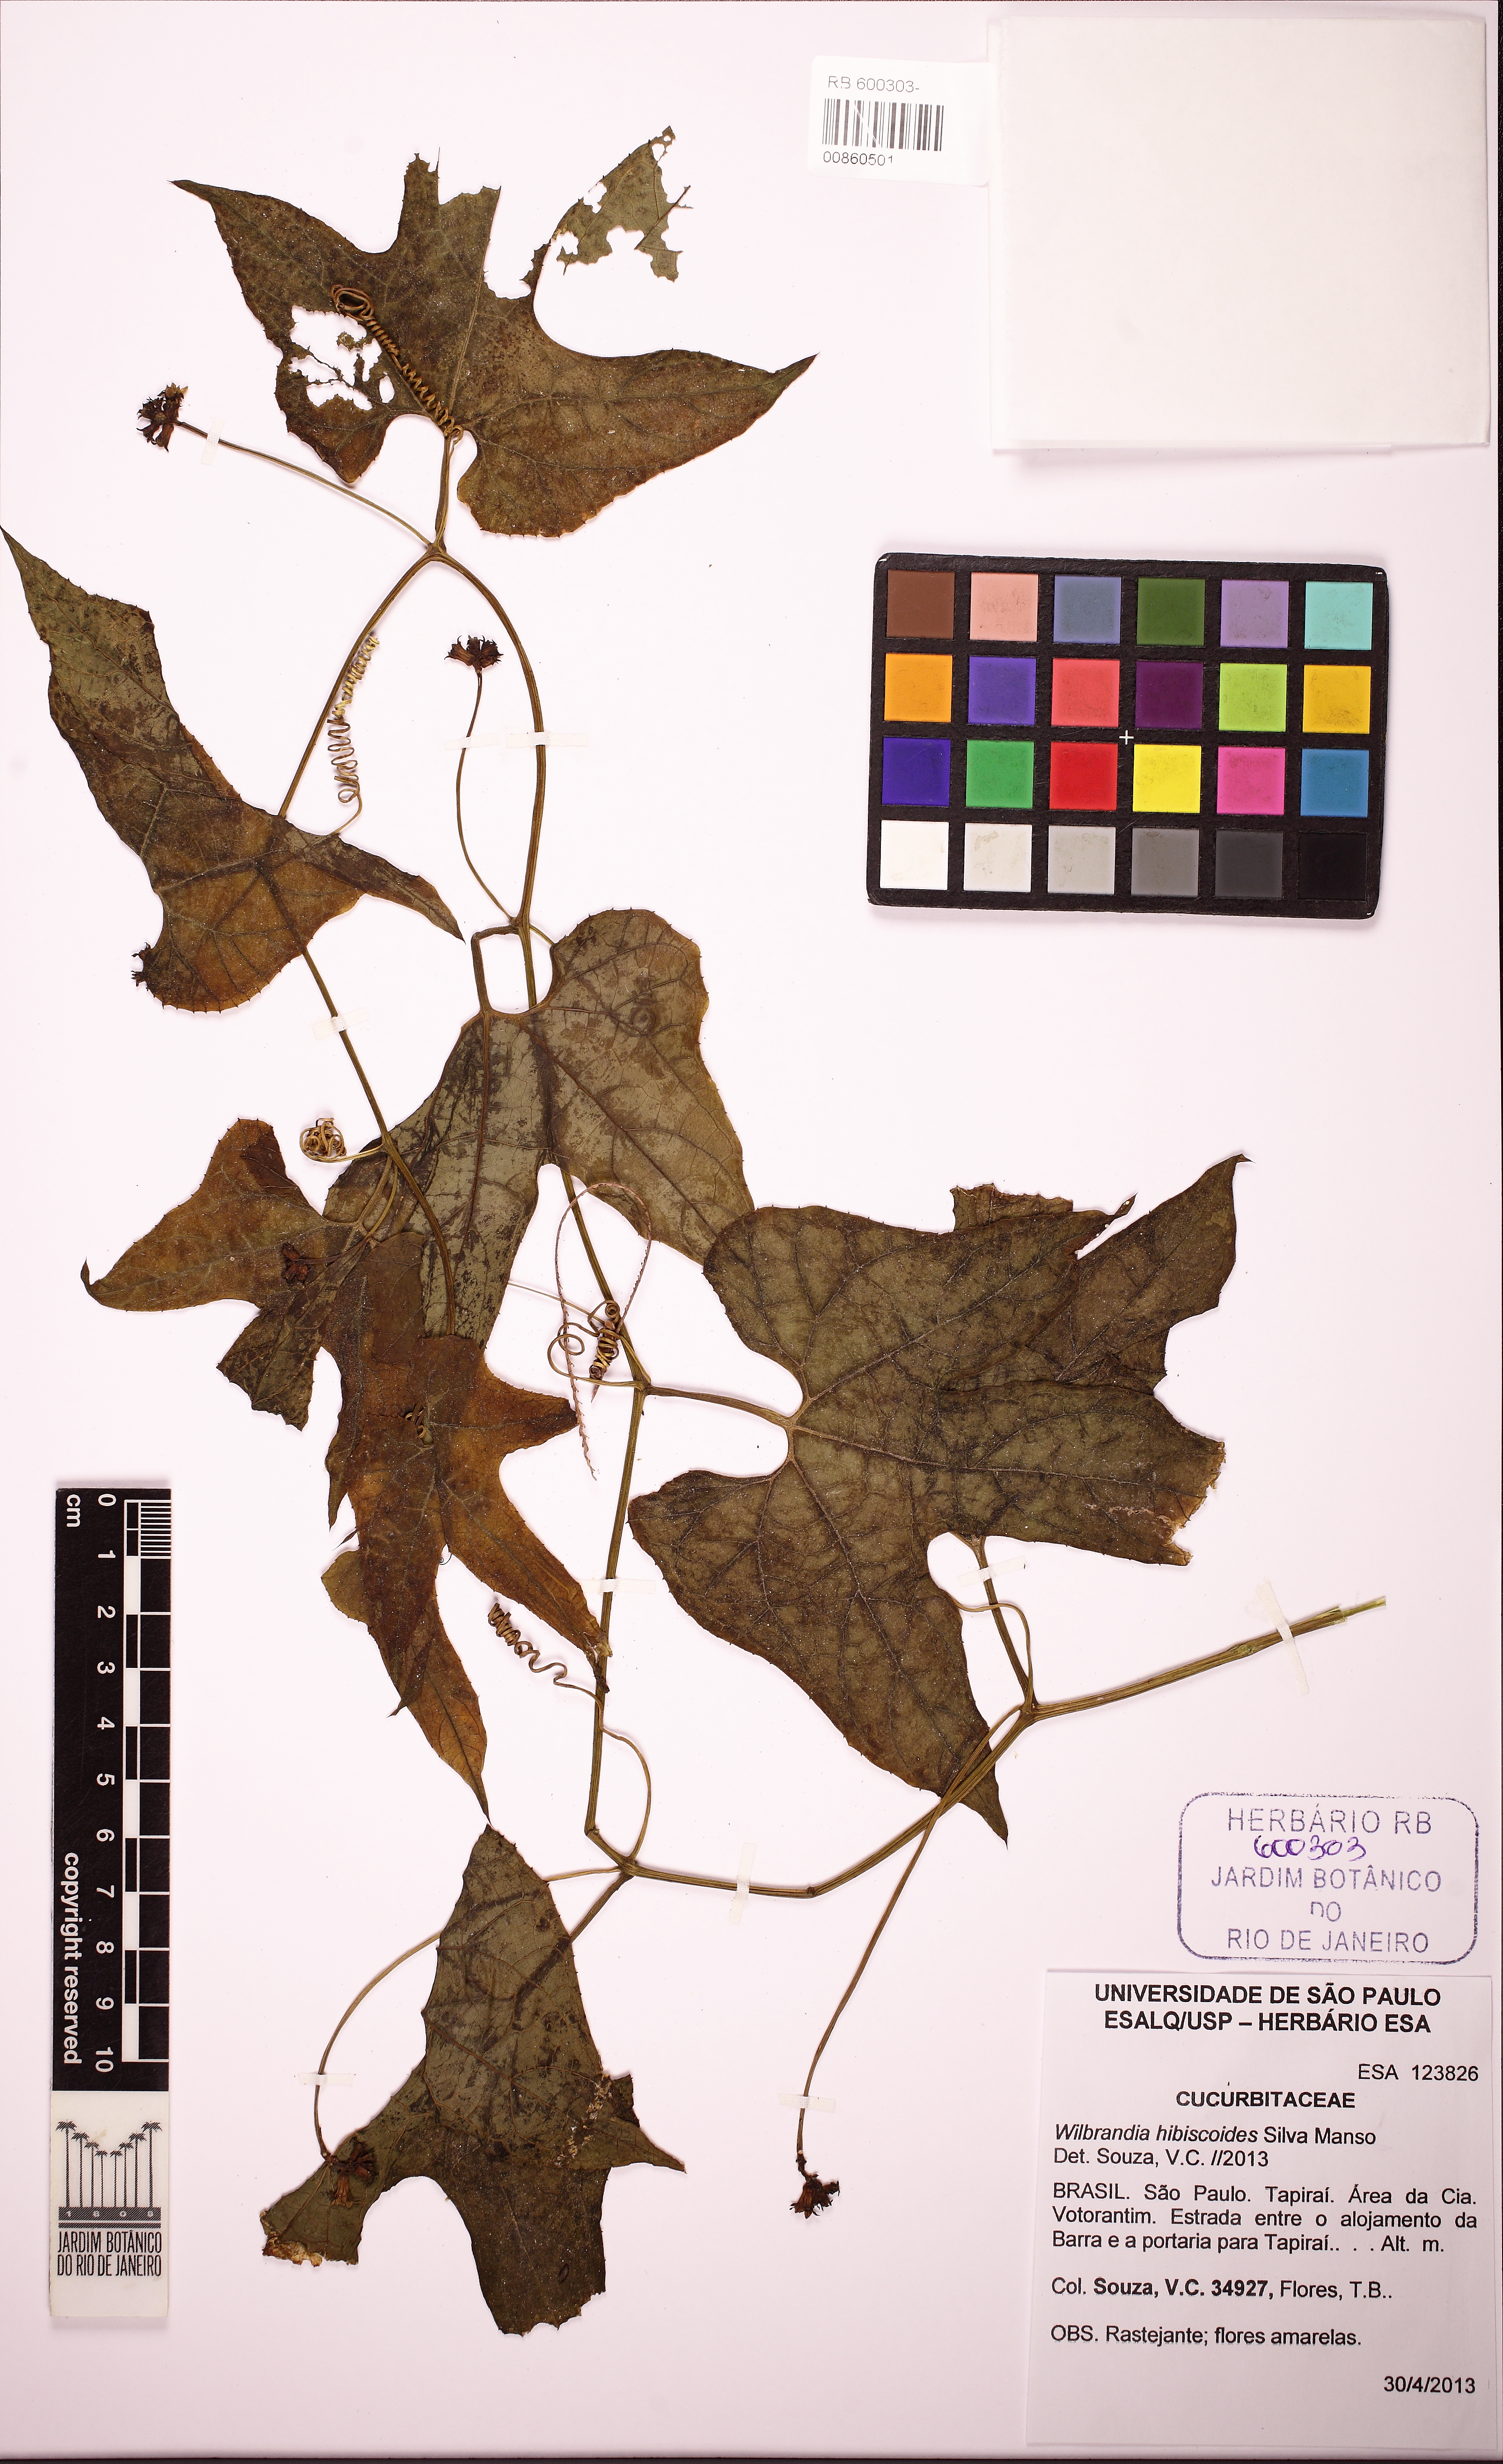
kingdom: Plantae
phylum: Tracheophyta
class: Magnoliopsida
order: Cucurbitales
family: Cucurbitaceae
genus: Wilbrandia
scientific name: Wilbrandia hibiscoides
